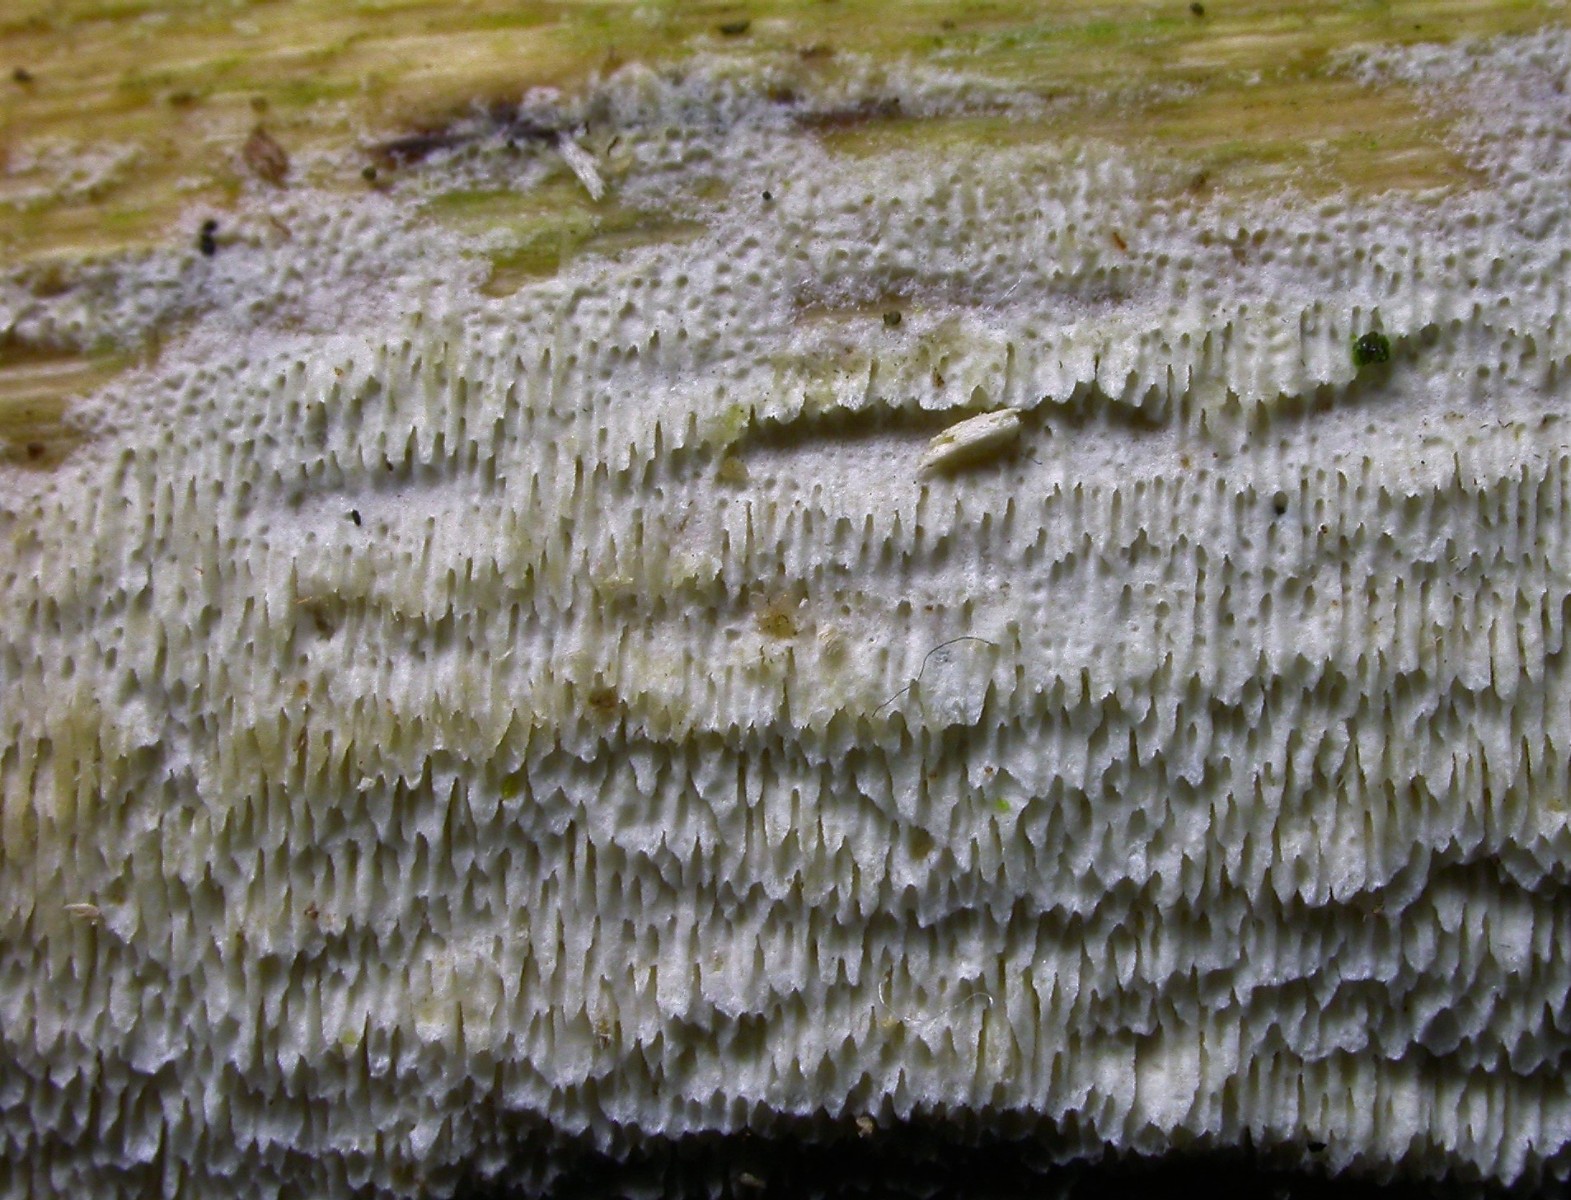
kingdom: Fungi
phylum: Basidiomycota
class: Agaricomycetes
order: Hymenochaetales
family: Schizoporaceae
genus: Schizopora
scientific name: Schizopora paradoxa
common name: hvid tandsvamp
